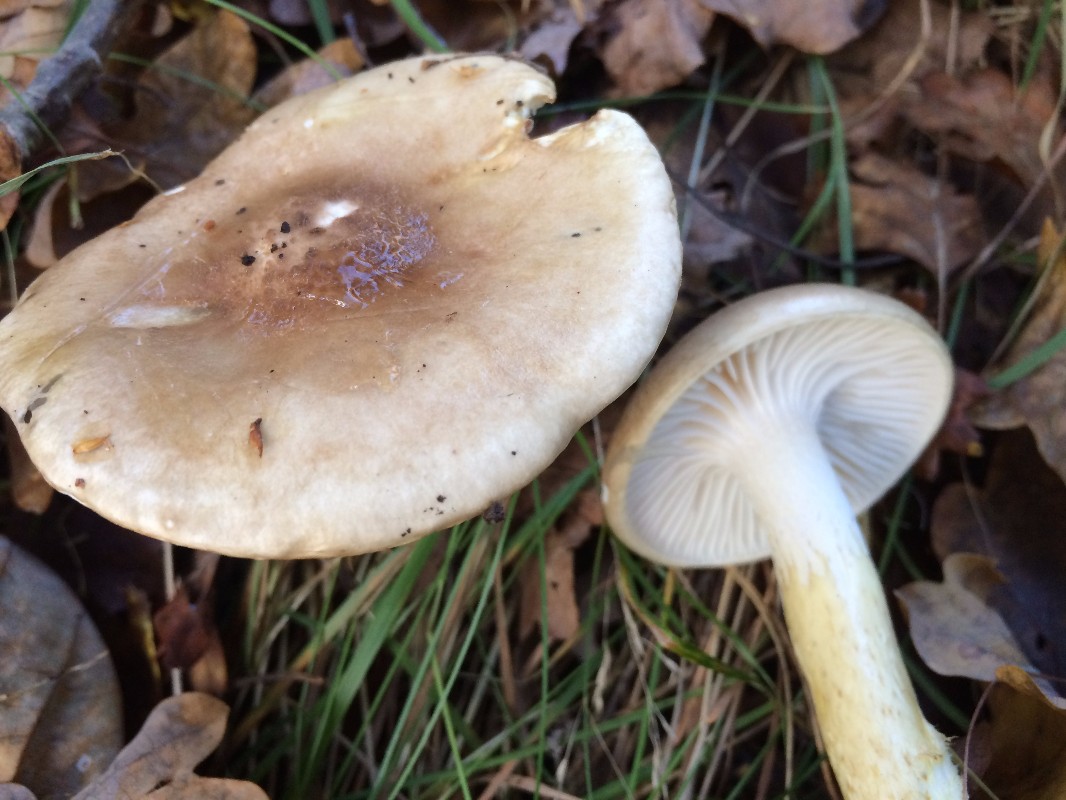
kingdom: Fungi
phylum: Basidiomycota
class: Agaricomycetes
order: Agaricales
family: Hygrophoraceae
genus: Hygrophorus
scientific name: Hygrophorus olivaceoalbus
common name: hvidbrun sneglehat
